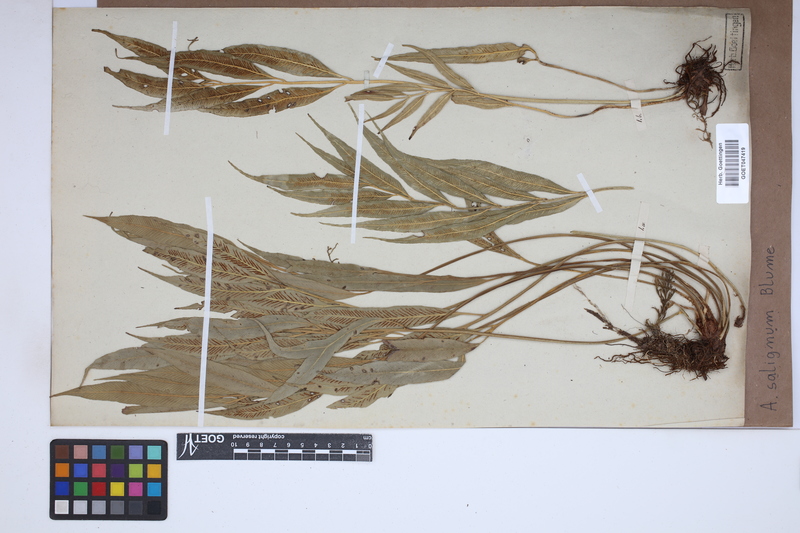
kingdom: Plantae
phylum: Tracheophyta
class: Polypodiopsida
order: Polypodiales
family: Aspleniaceae
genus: Asplenium
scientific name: Asplenium salignum
